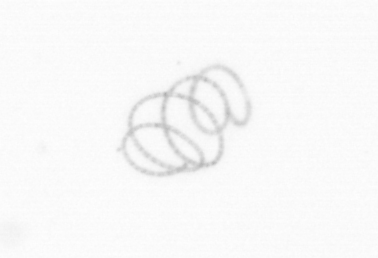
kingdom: Chromista
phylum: Ochrophyta
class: Bacillariophyceae
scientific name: Bacillariophyceae
